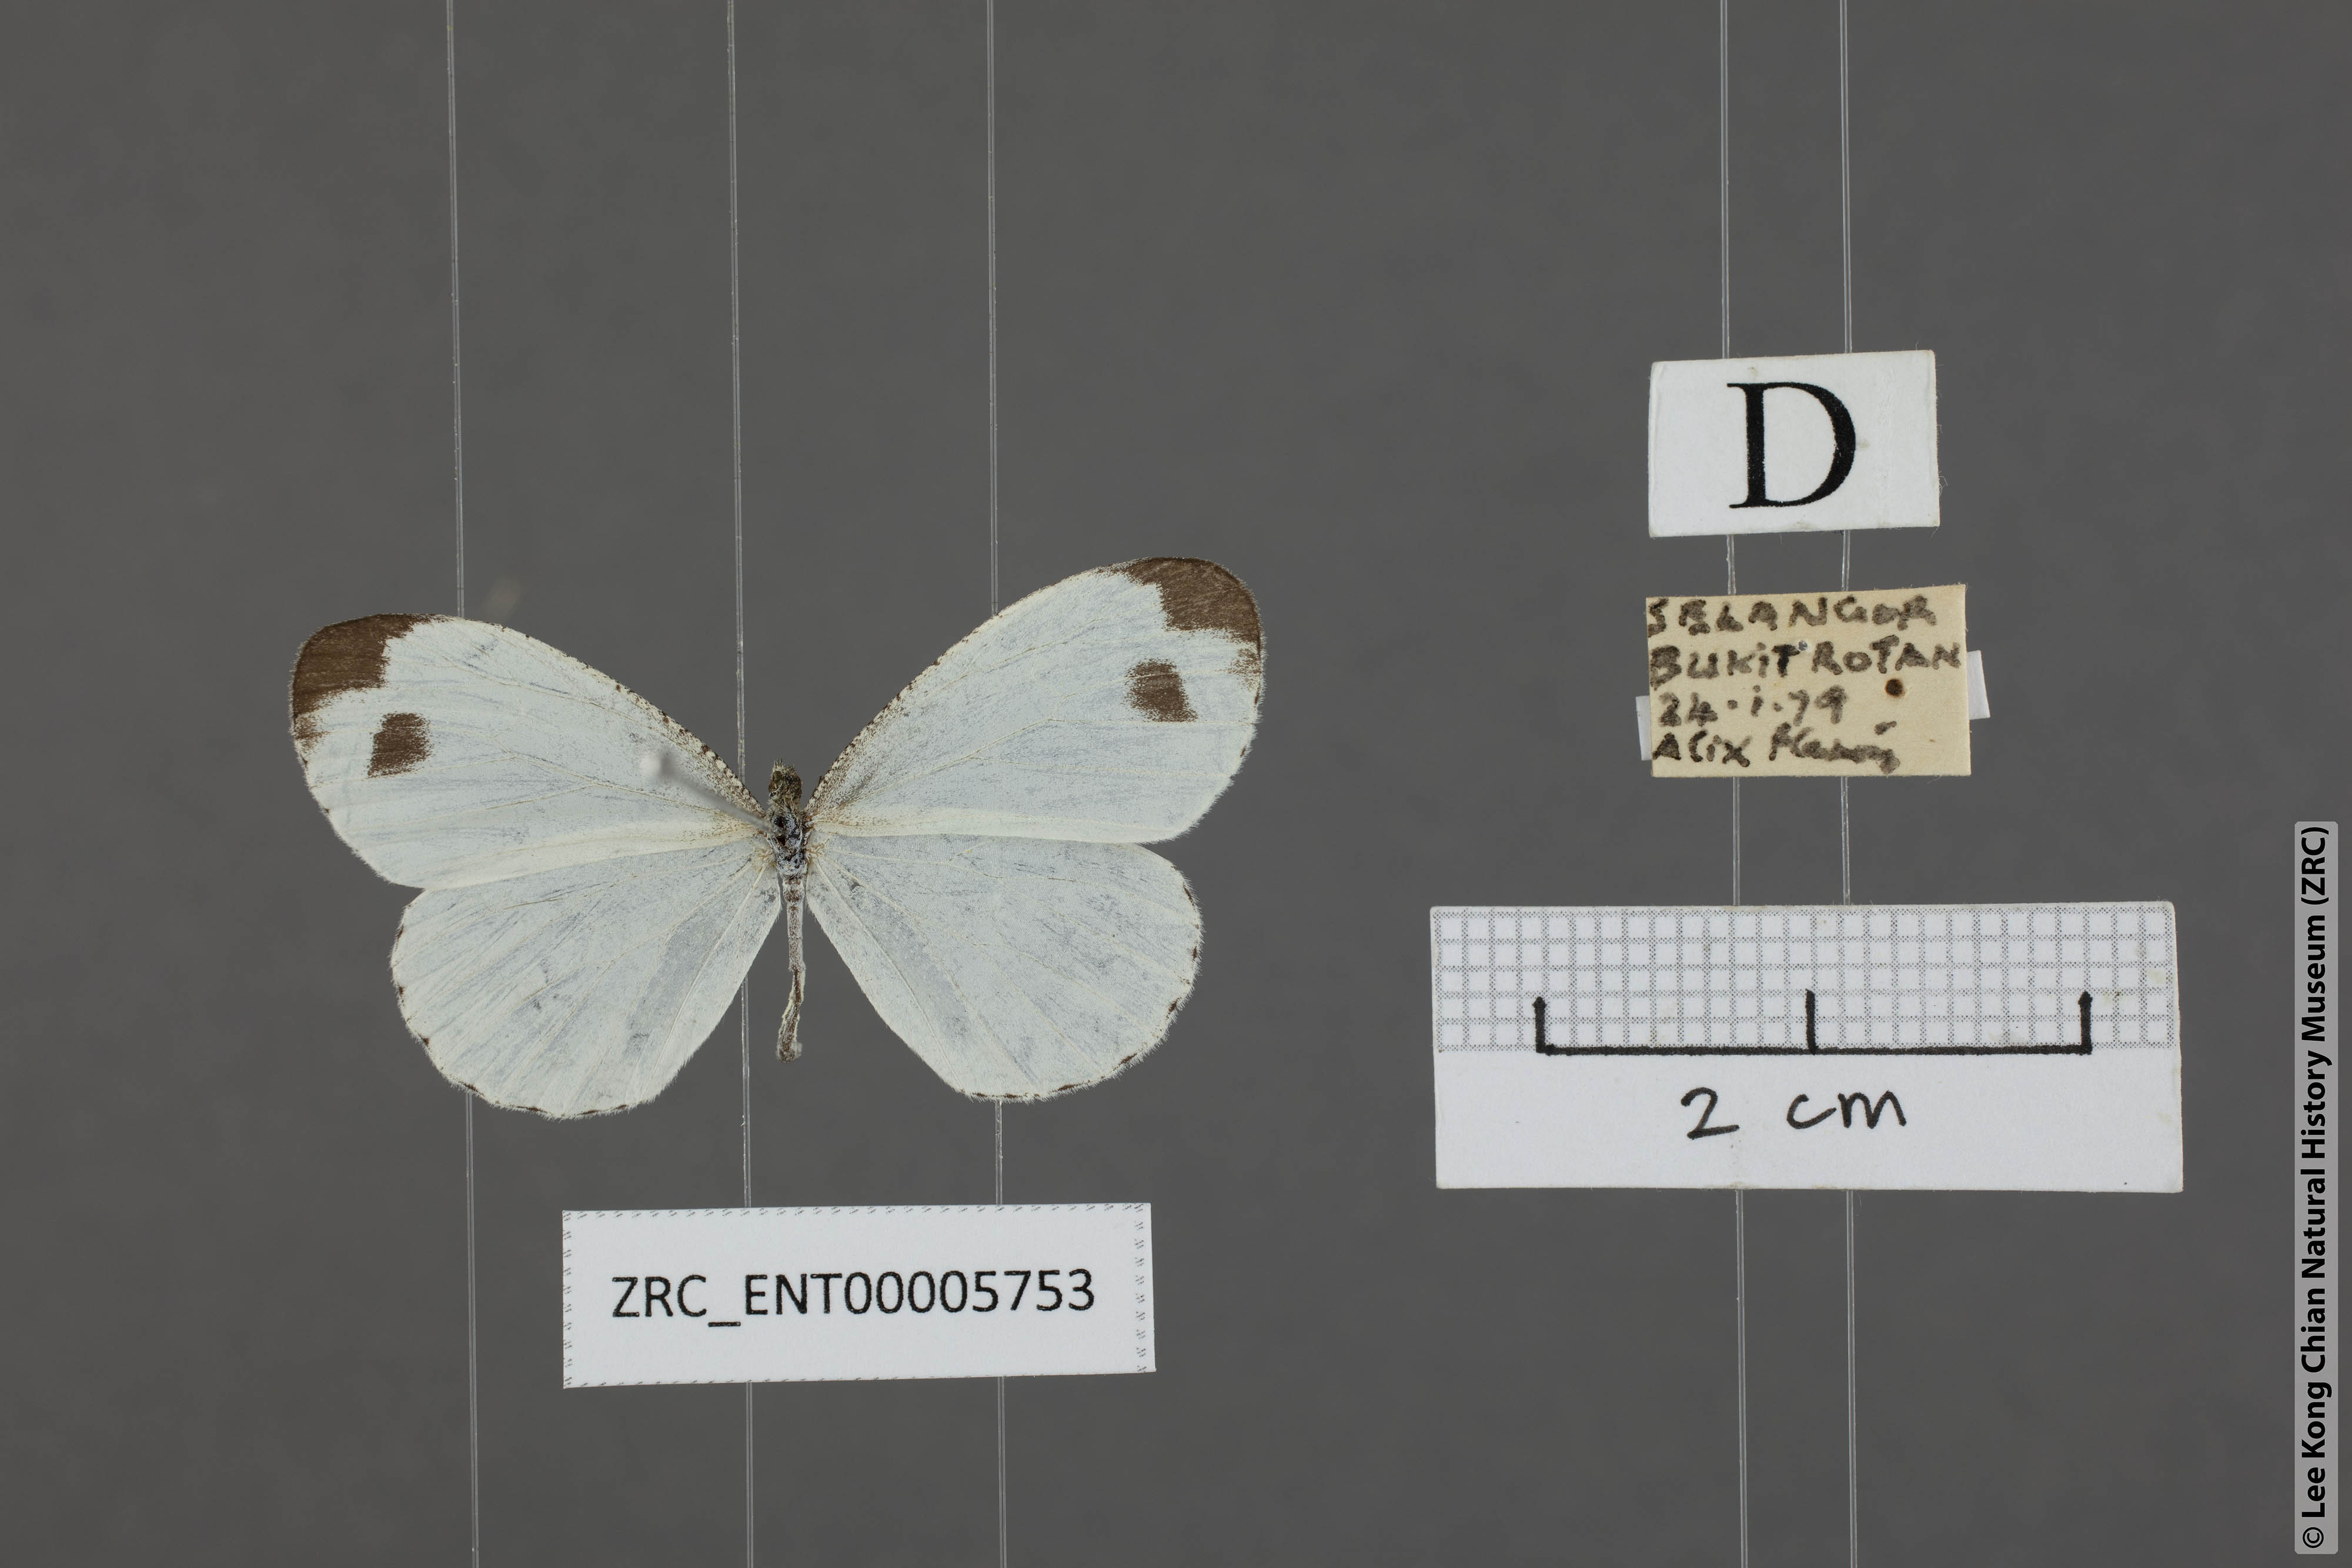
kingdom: Animalia
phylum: Arthropoda
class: Insecta
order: Lepidoptera
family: Pieridae
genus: Leptosia
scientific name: Leptosia nina
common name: Psyche
